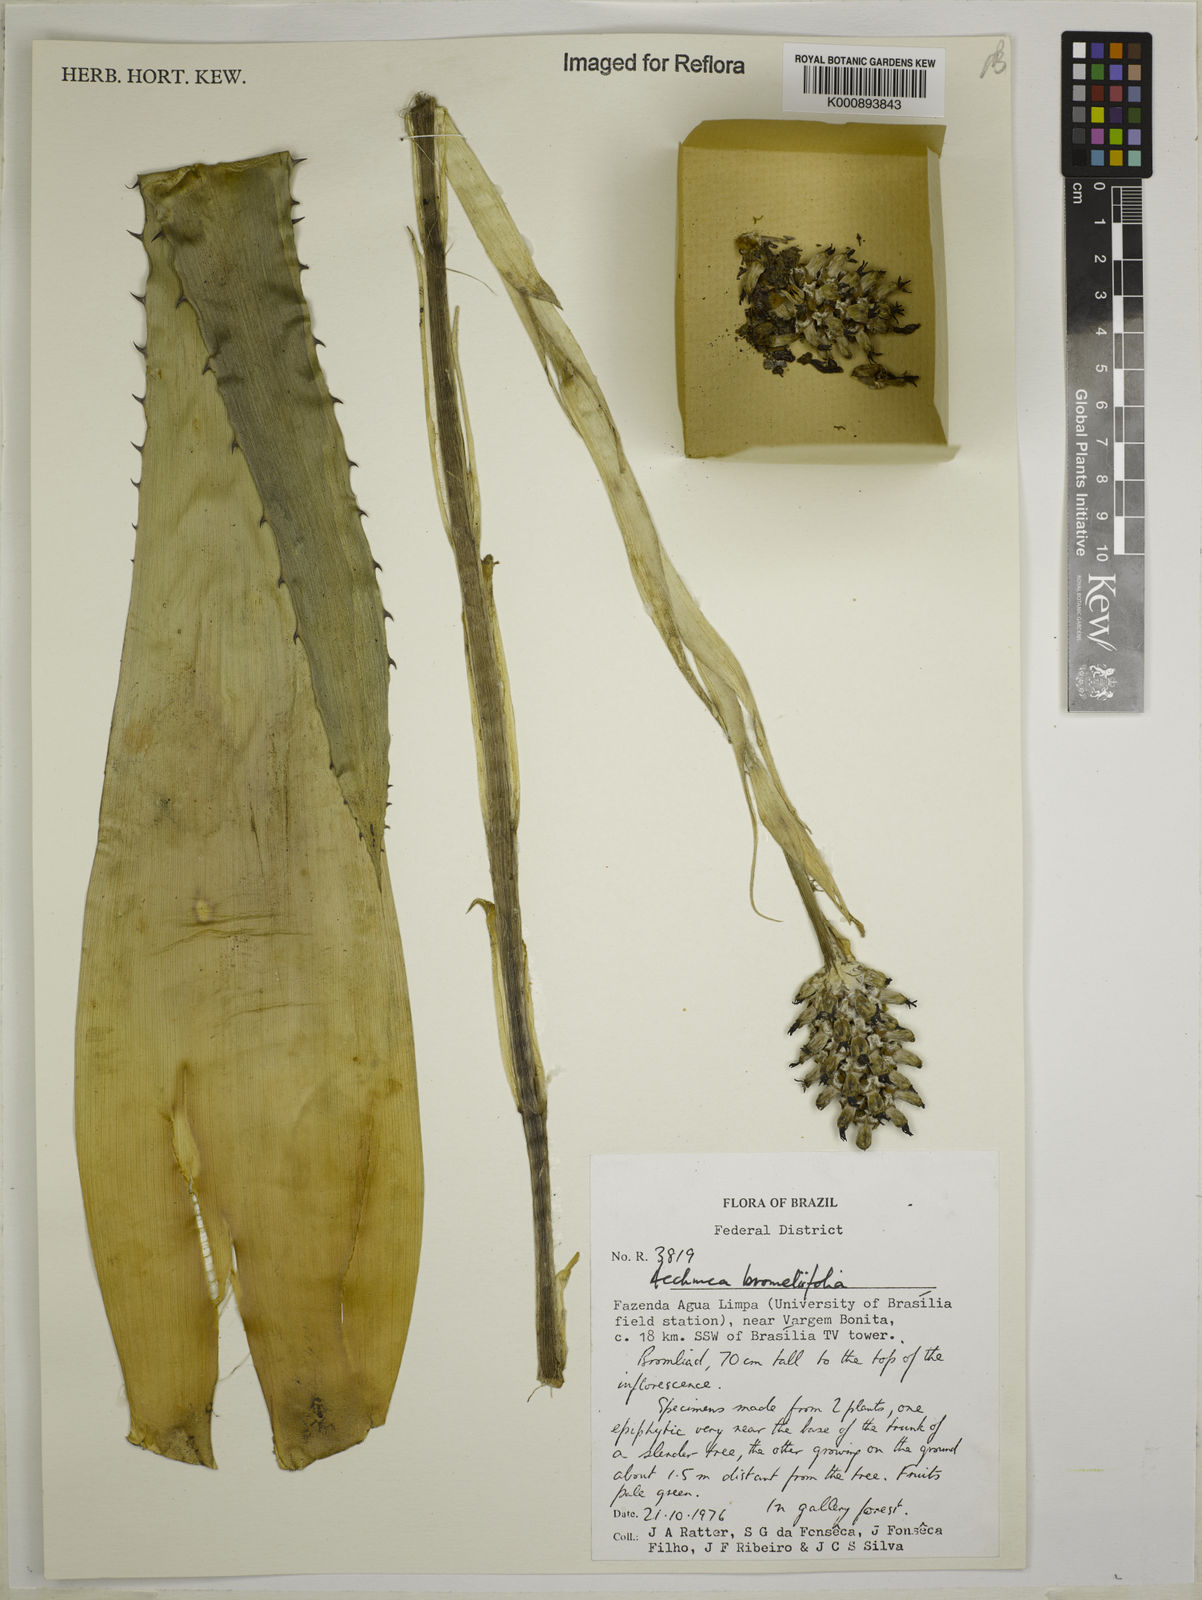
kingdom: Plantae
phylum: Tracheophyta
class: Liliopsida
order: Poales
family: Bromeliaceae
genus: Aechmea
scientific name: Aechmea
